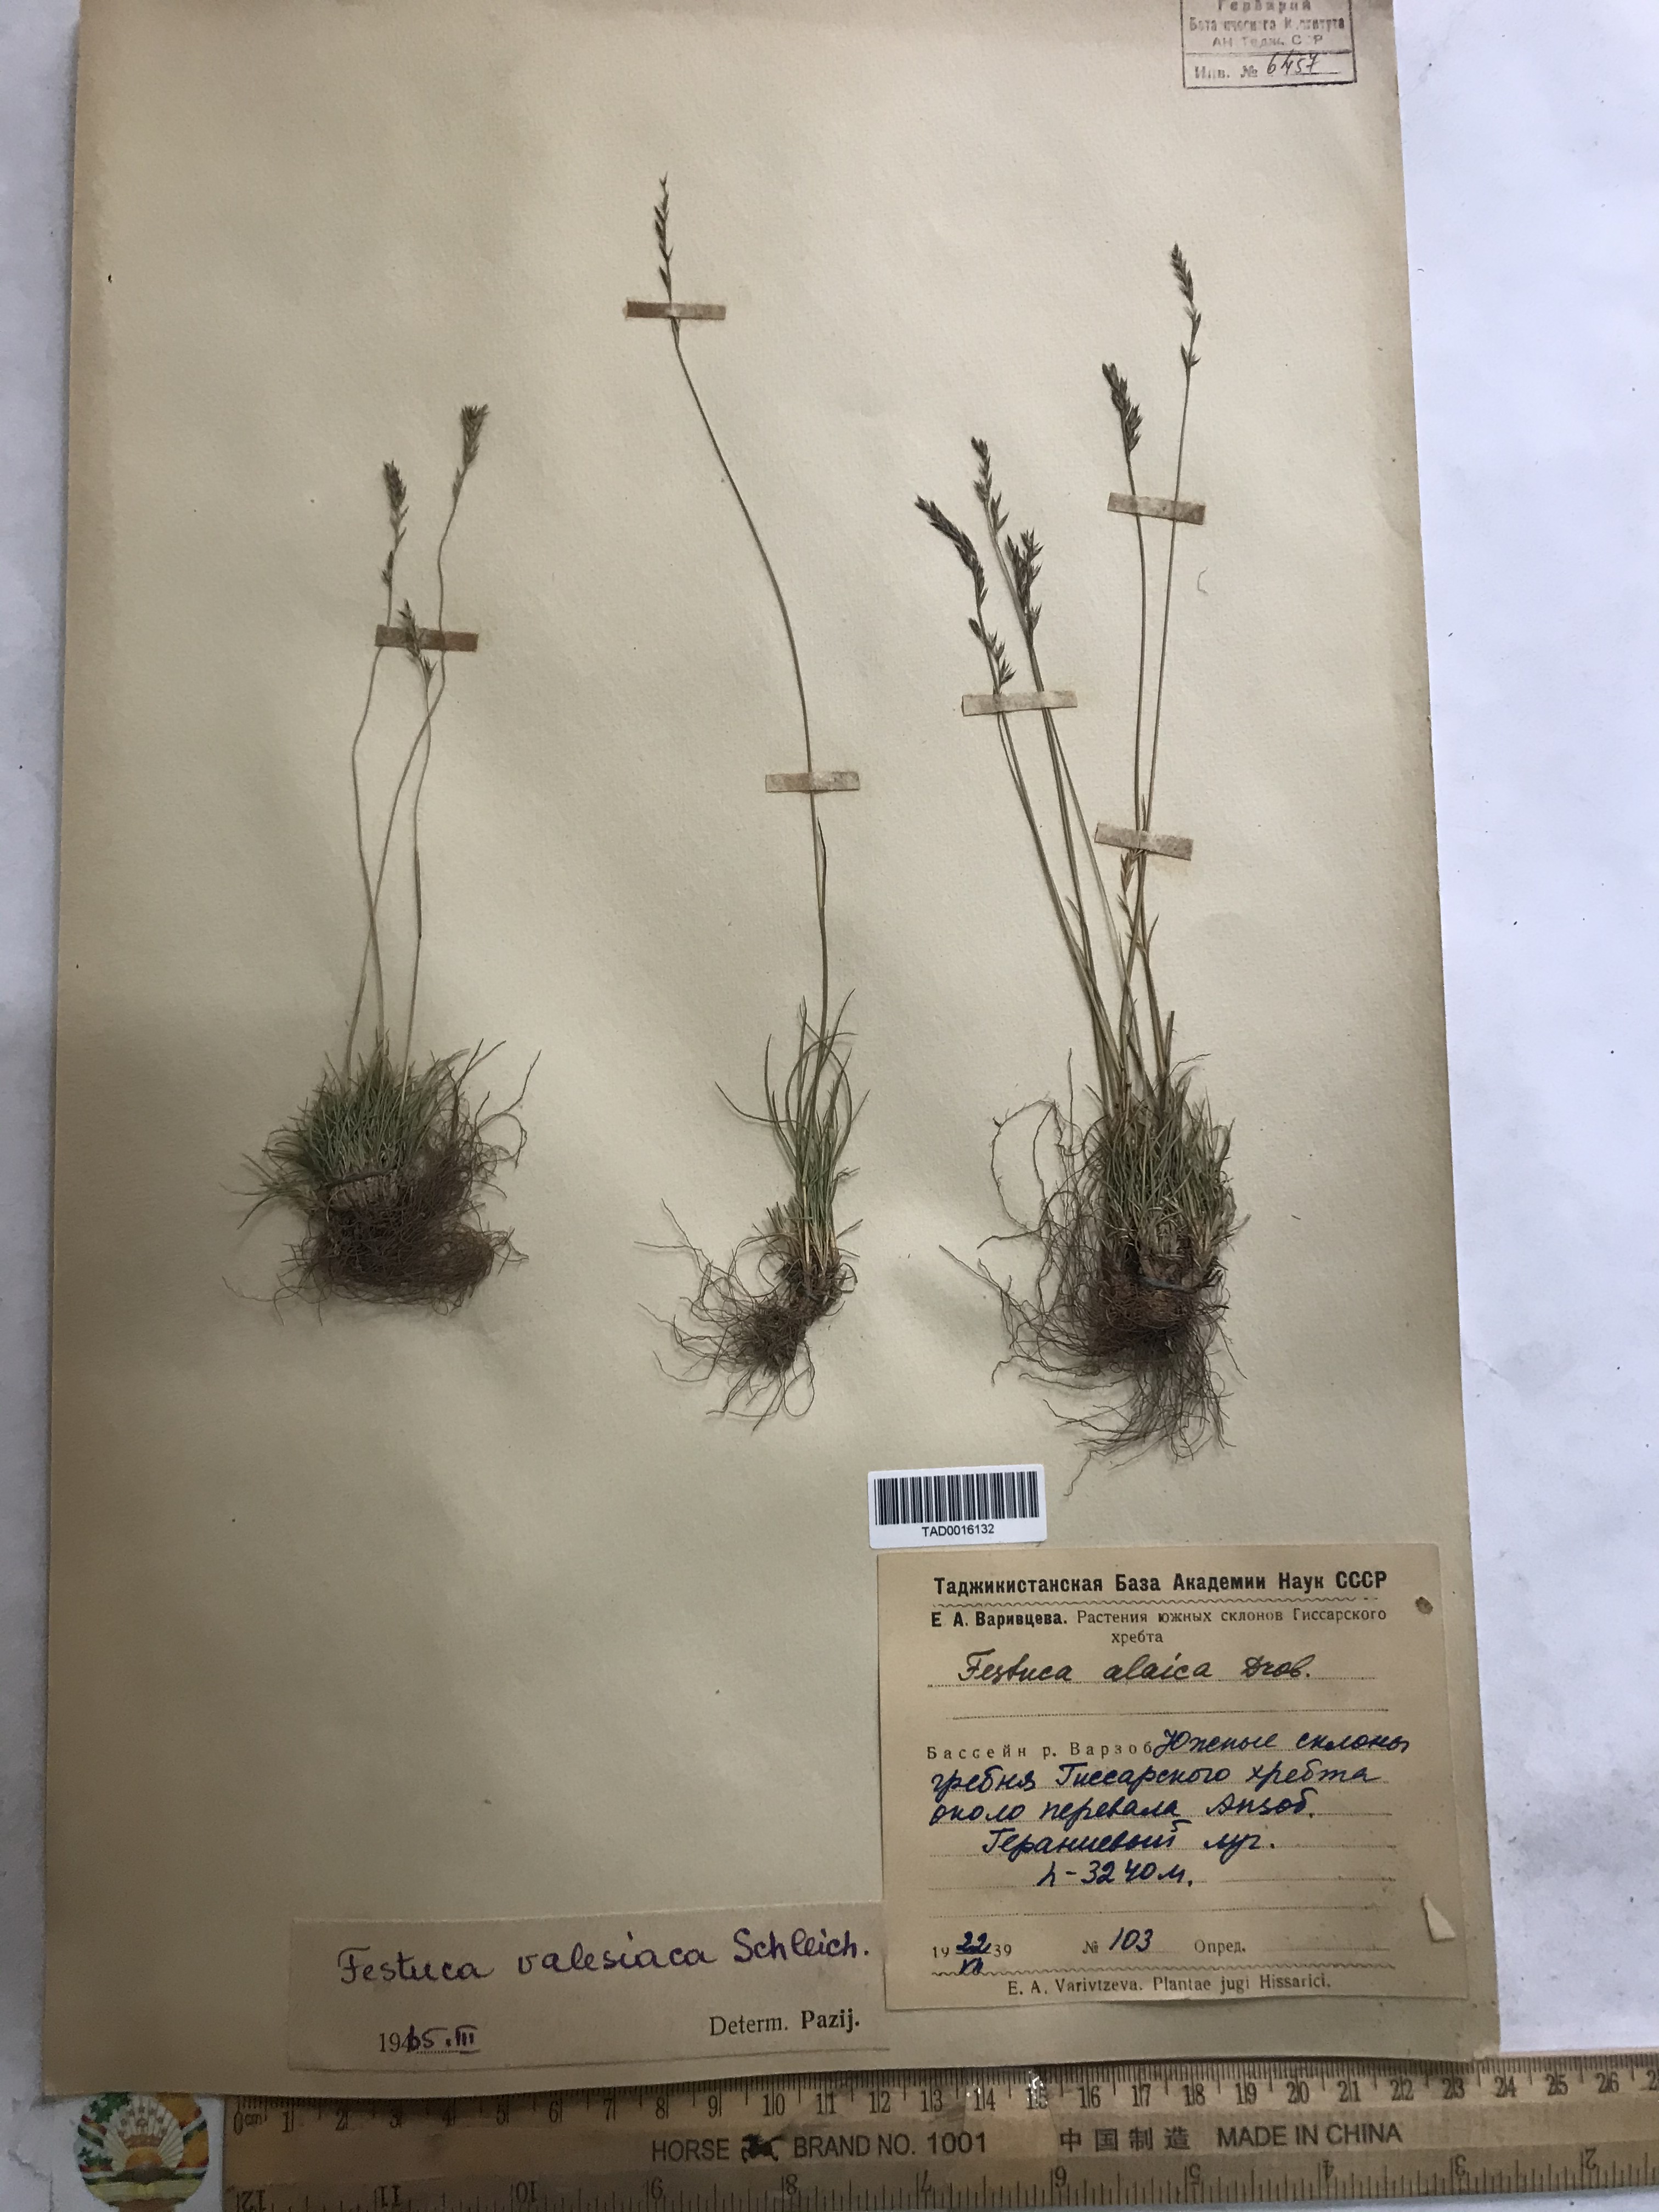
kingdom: Plantae
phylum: Tracheophyta
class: Liliopsida
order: Poales
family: Poaceae
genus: Festuca
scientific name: Festuca valesiaca
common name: Volga fescue
